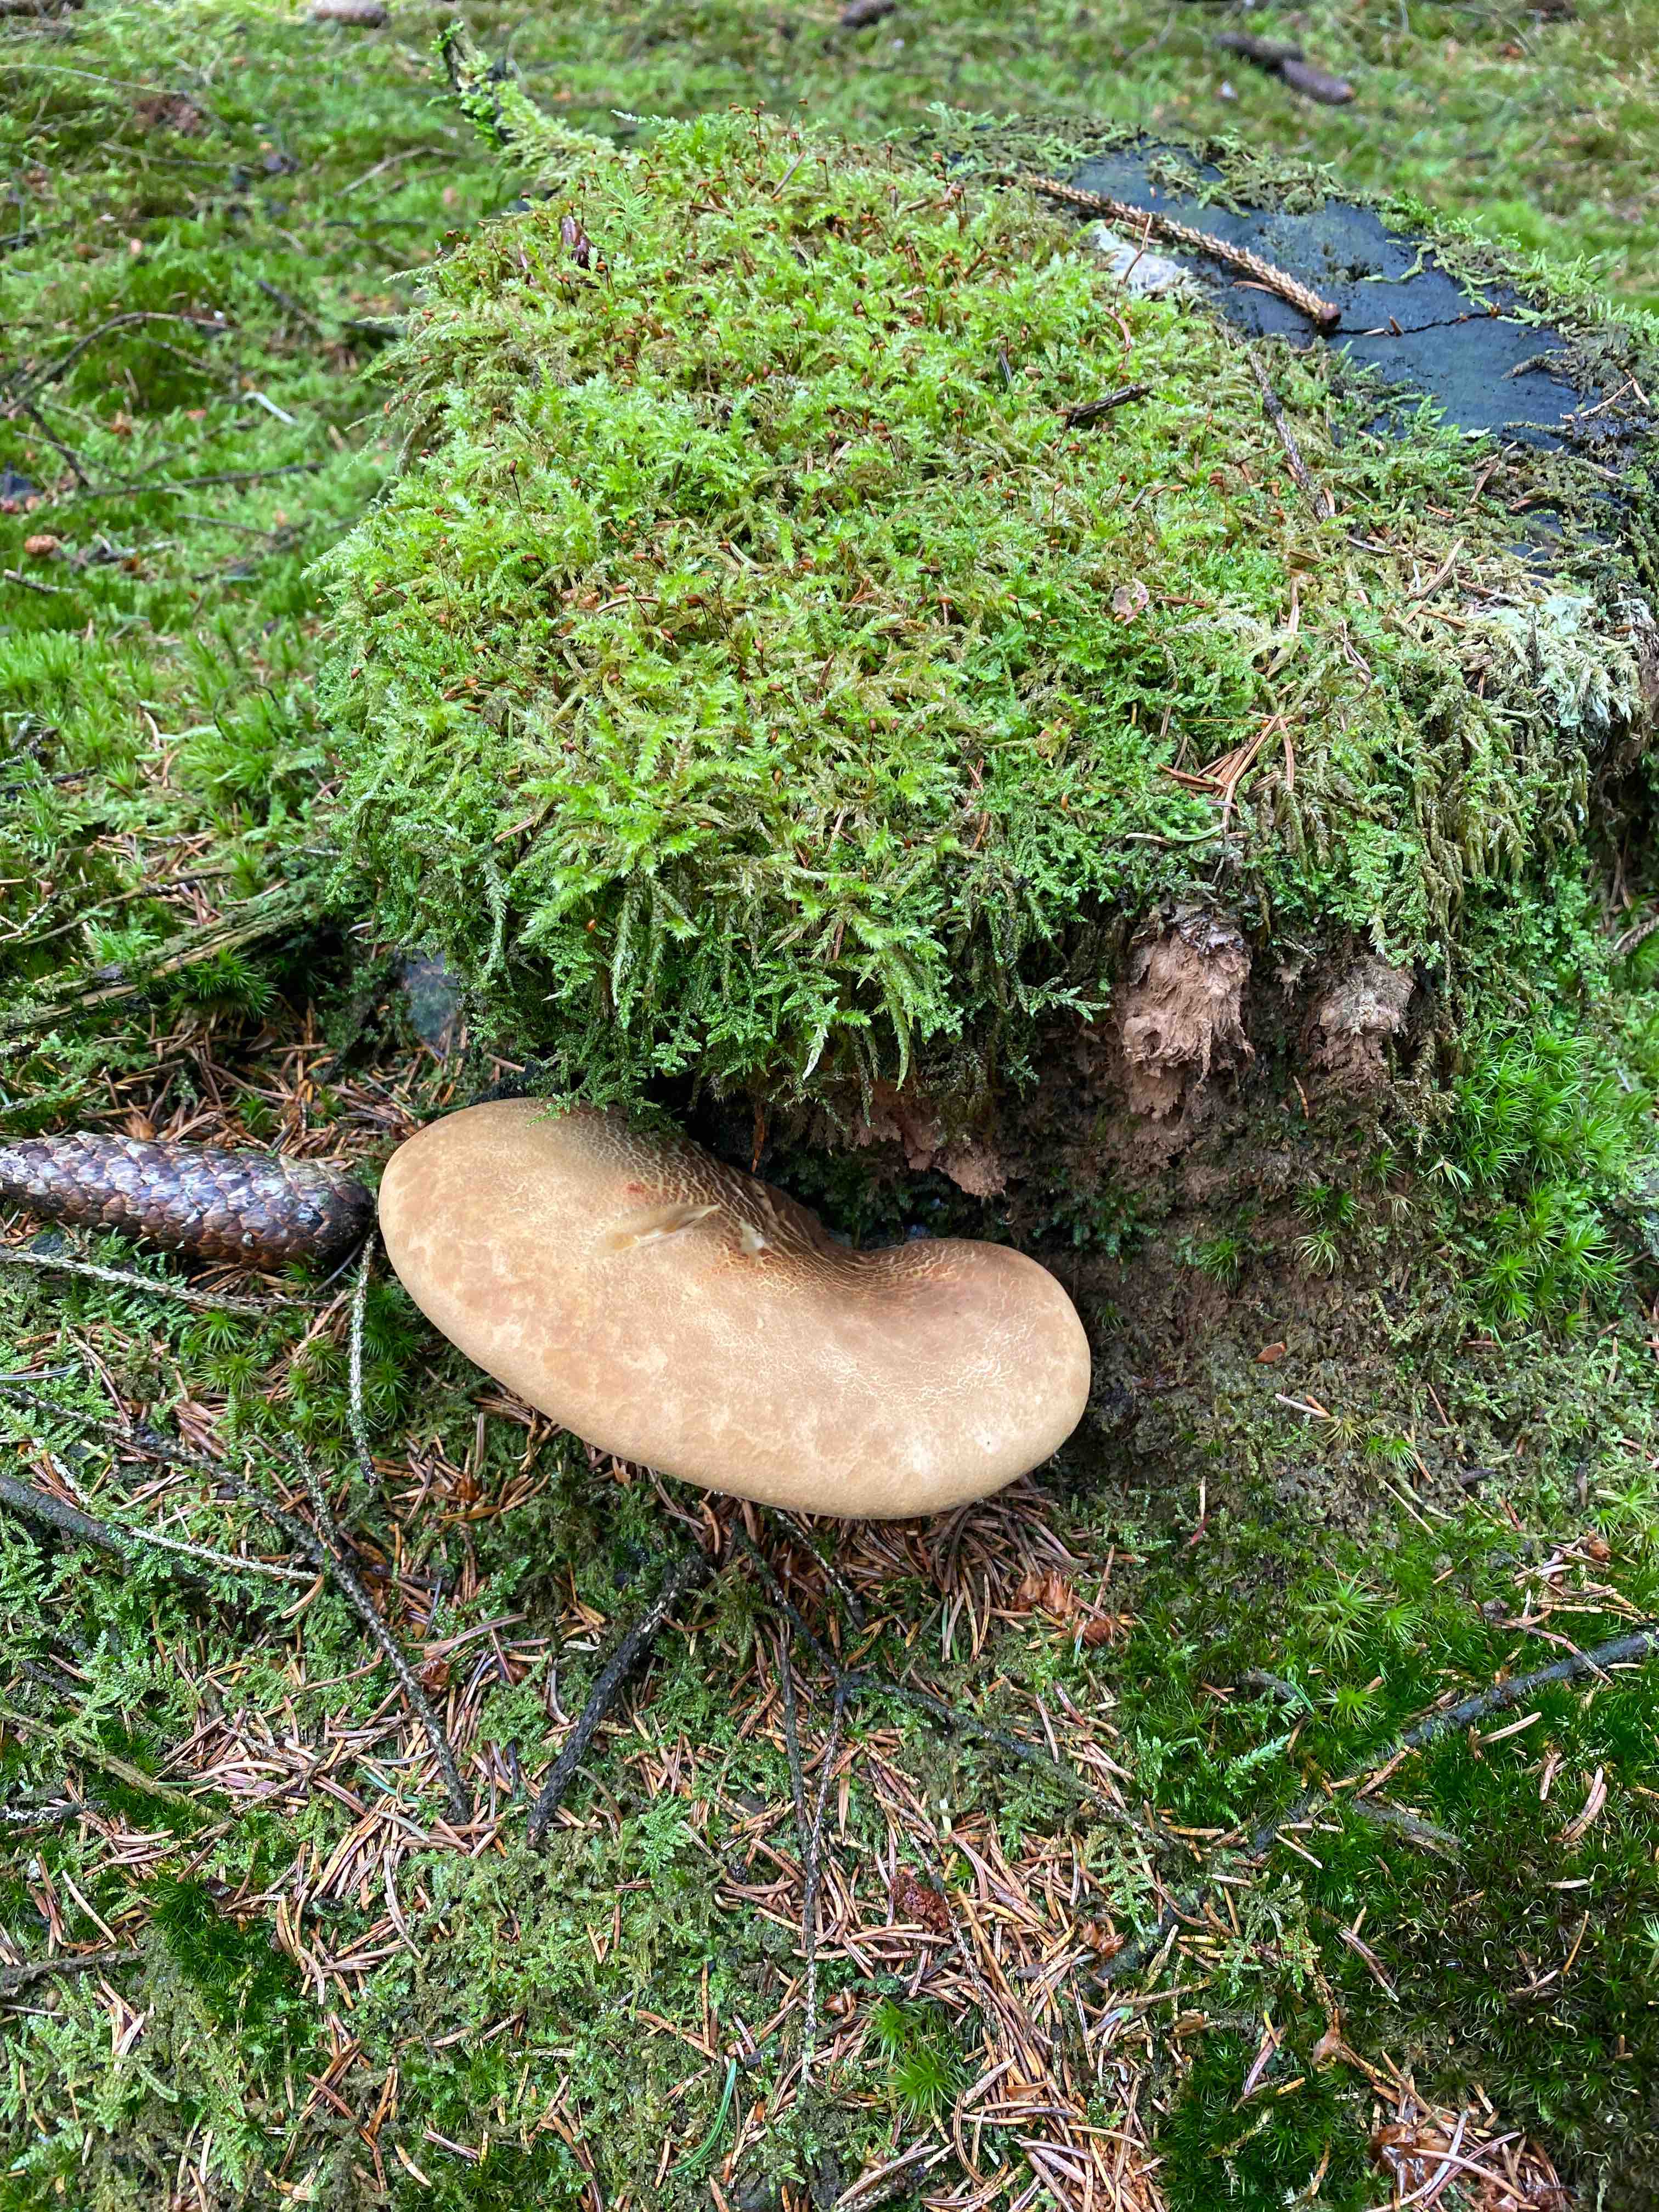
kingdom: Fungi
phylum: Basidiomycota
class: Agaricomycetes
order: Boletales
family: Tapinellaceae
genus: Tapinella
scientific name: Tapinella atrotomentosa
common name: sortfiltet viftesvamp
